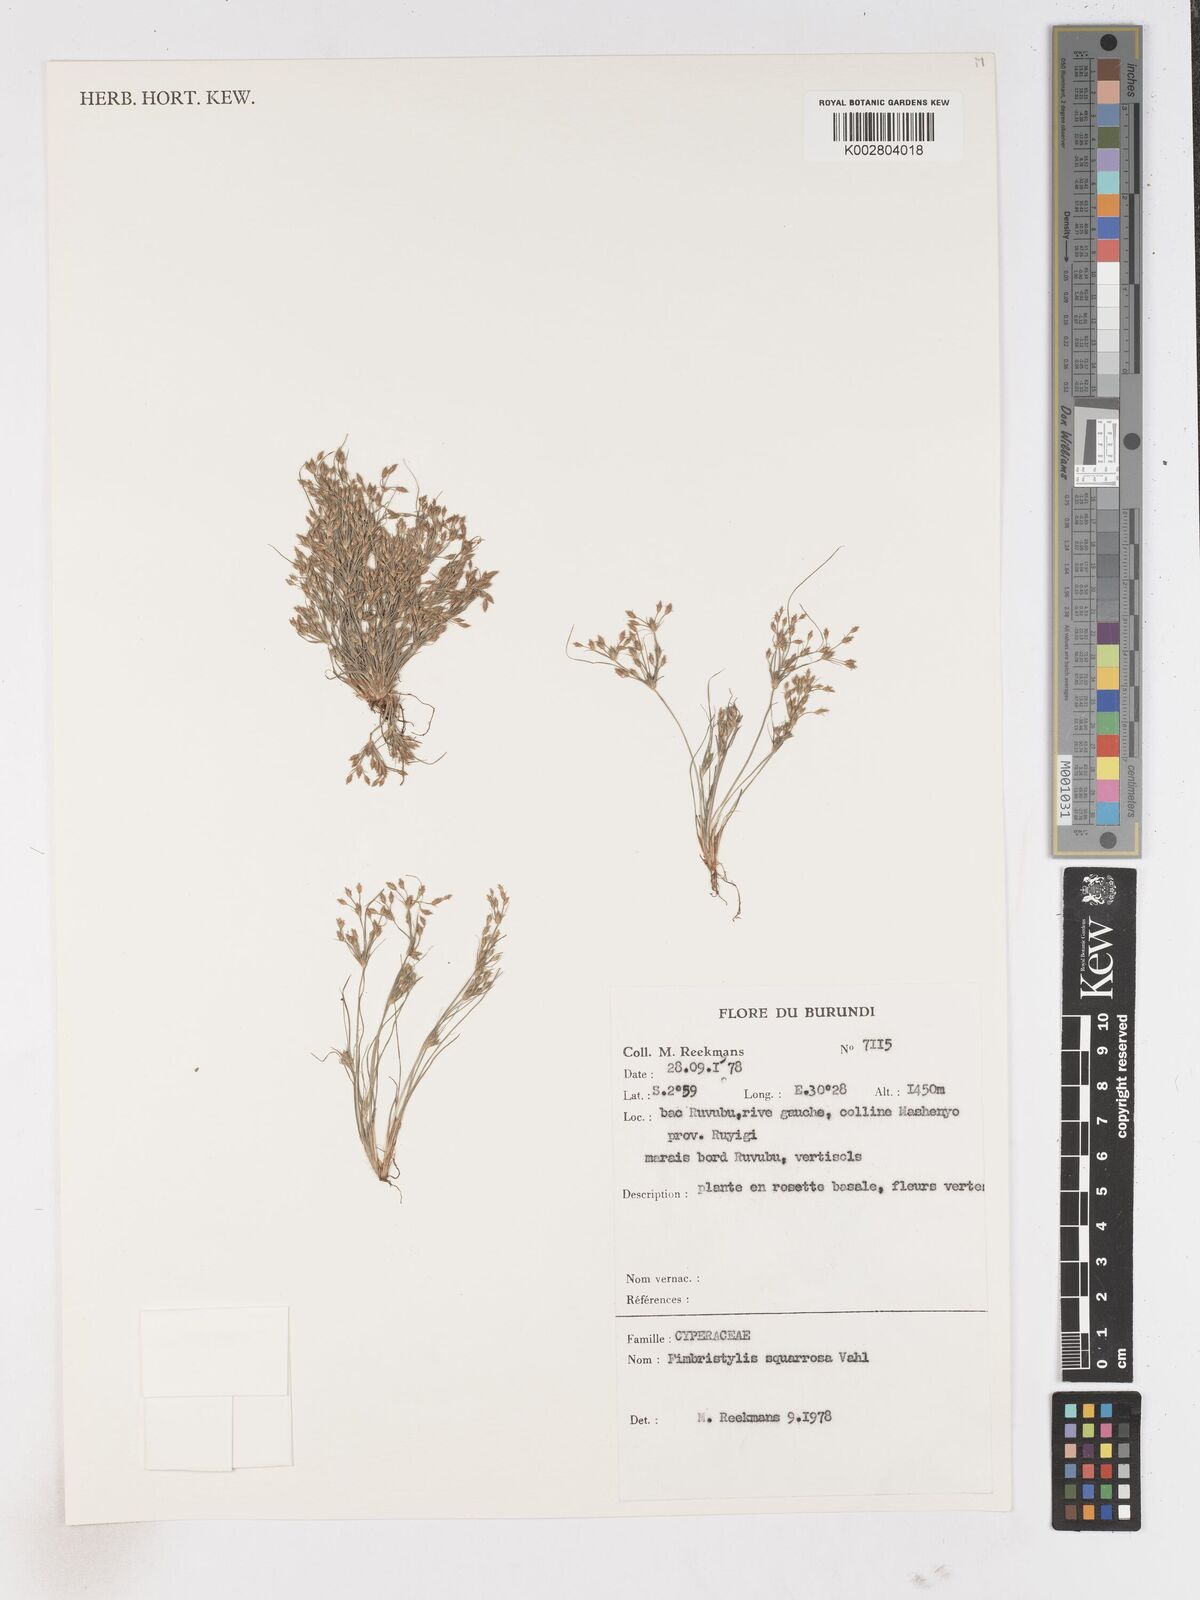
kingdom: Plantae
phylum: Tracheophyta
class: Liliopsida
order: Poales
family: Cyperaceae
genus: Fimbristylis
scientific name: Fimbristylis squarrosa
